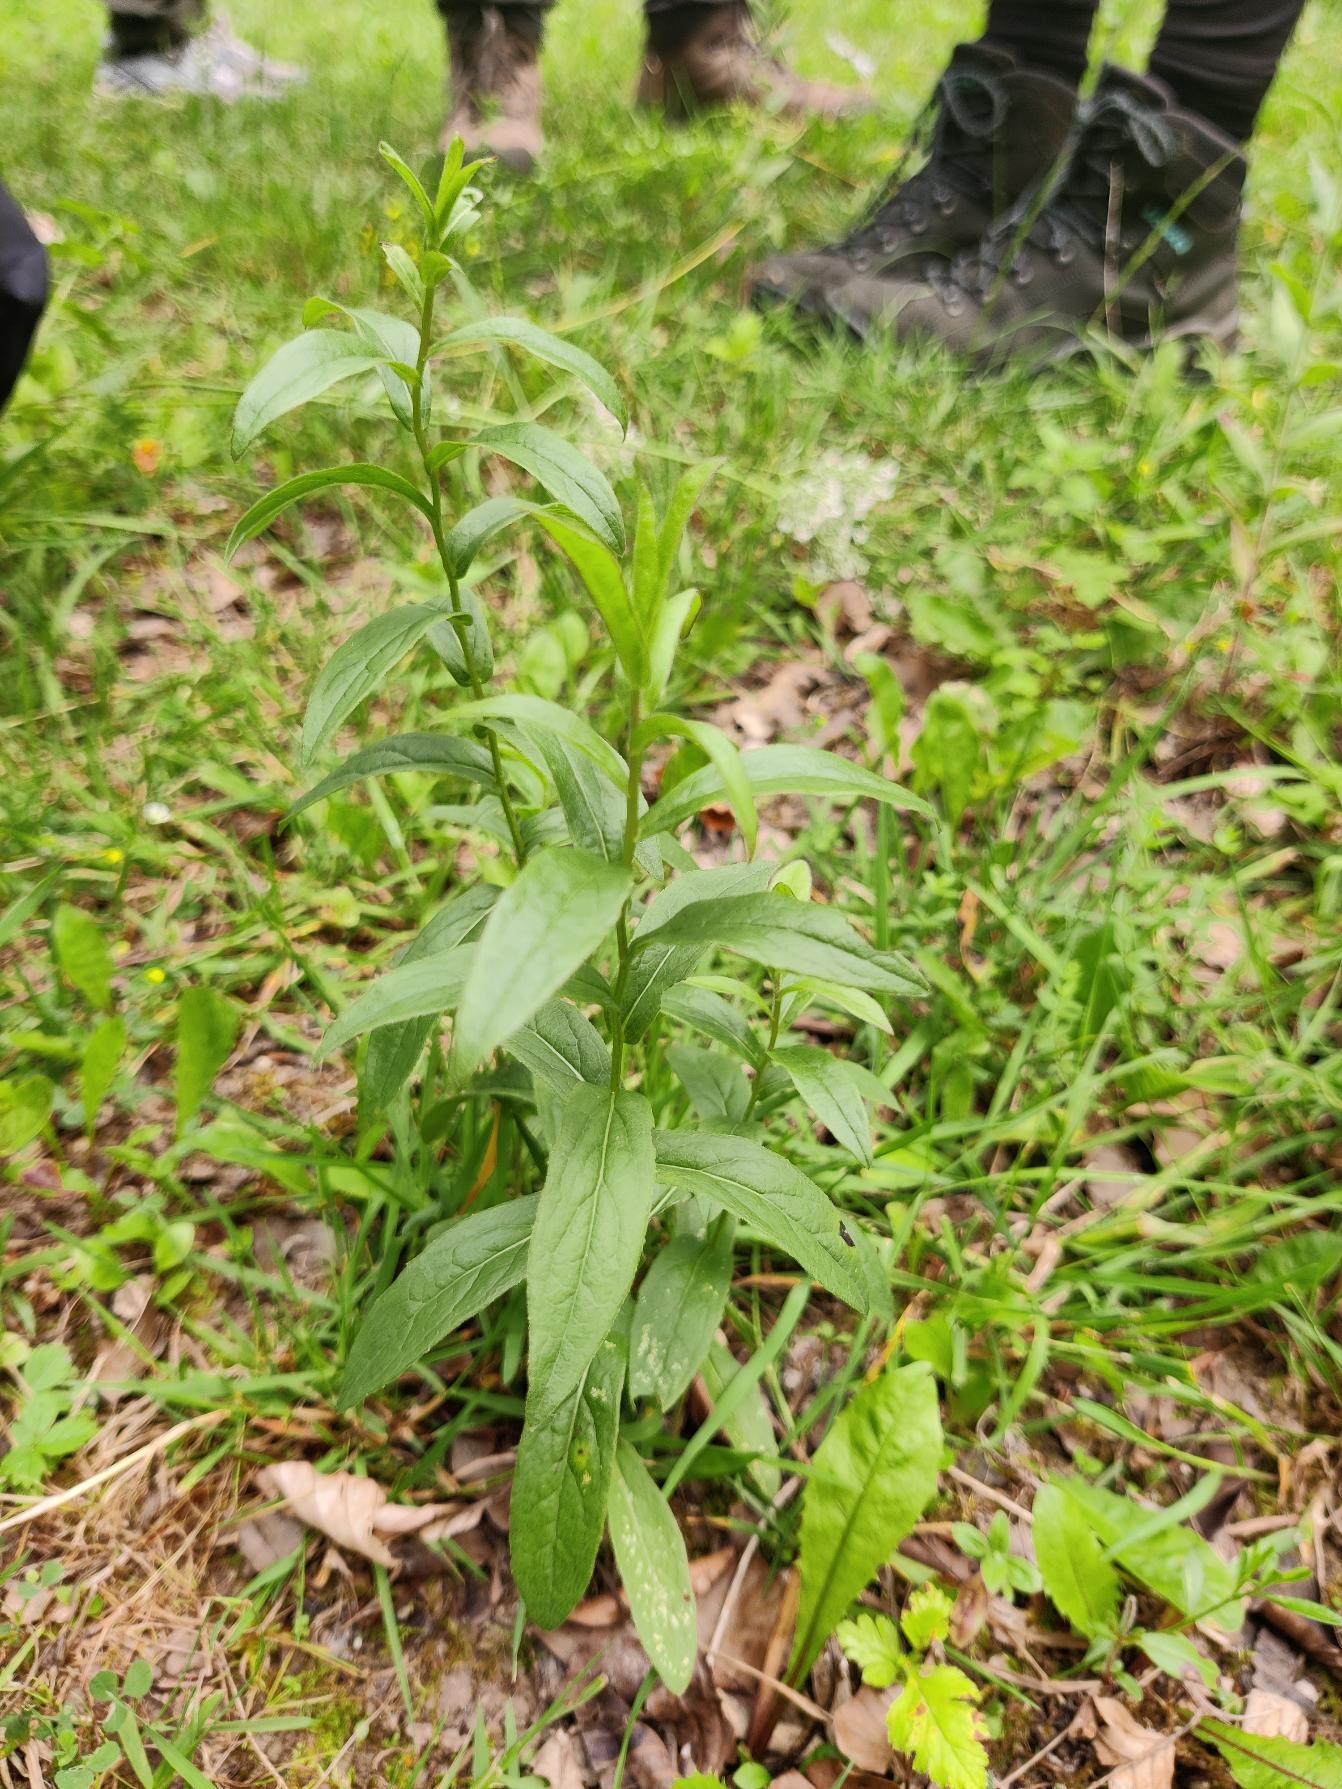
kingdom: Plantae
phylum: Tracheophyta
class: Magnoliopsida
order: Asterales
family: Asteraceae
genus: Pentanema
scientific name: Pentanema salicinum
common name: Pile-alant
